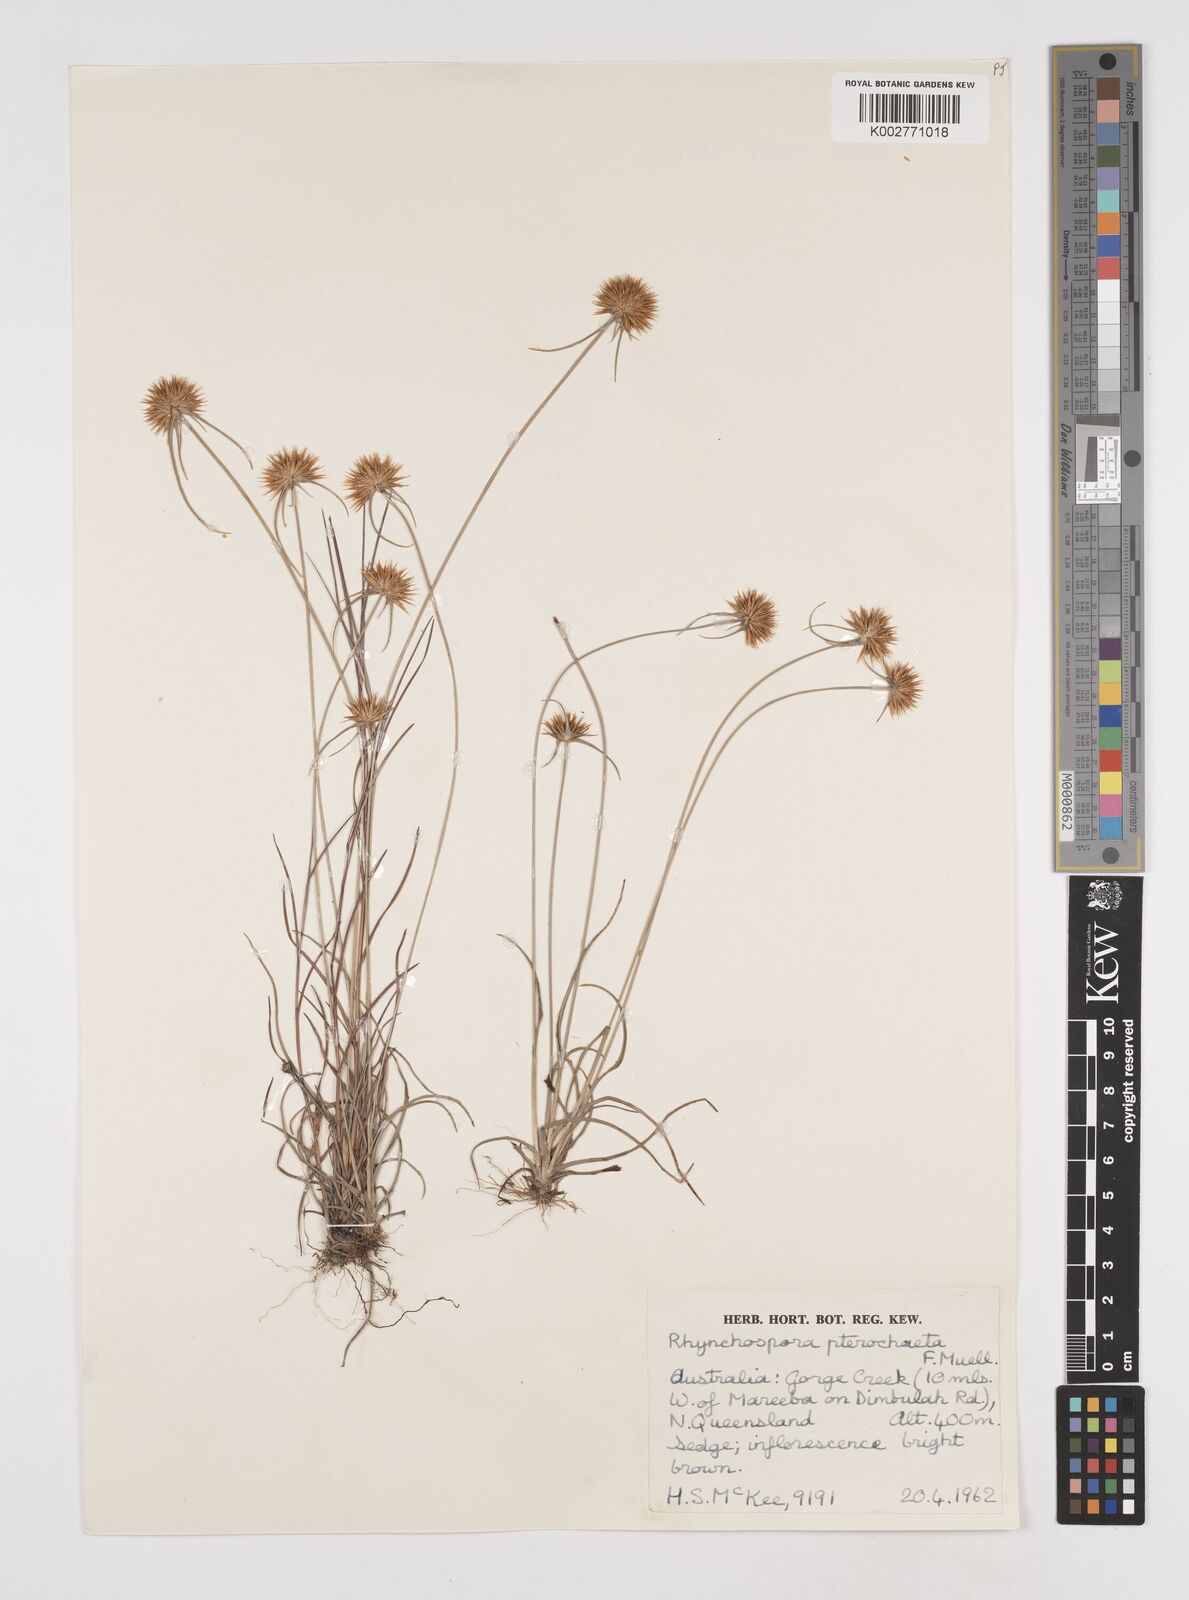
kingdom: Plantae
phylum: Tracheophyta
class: Liliopsida
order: Poales
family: Cyperaceae
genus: Rhynchospora
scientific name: Rhynchospora pterochaeta
